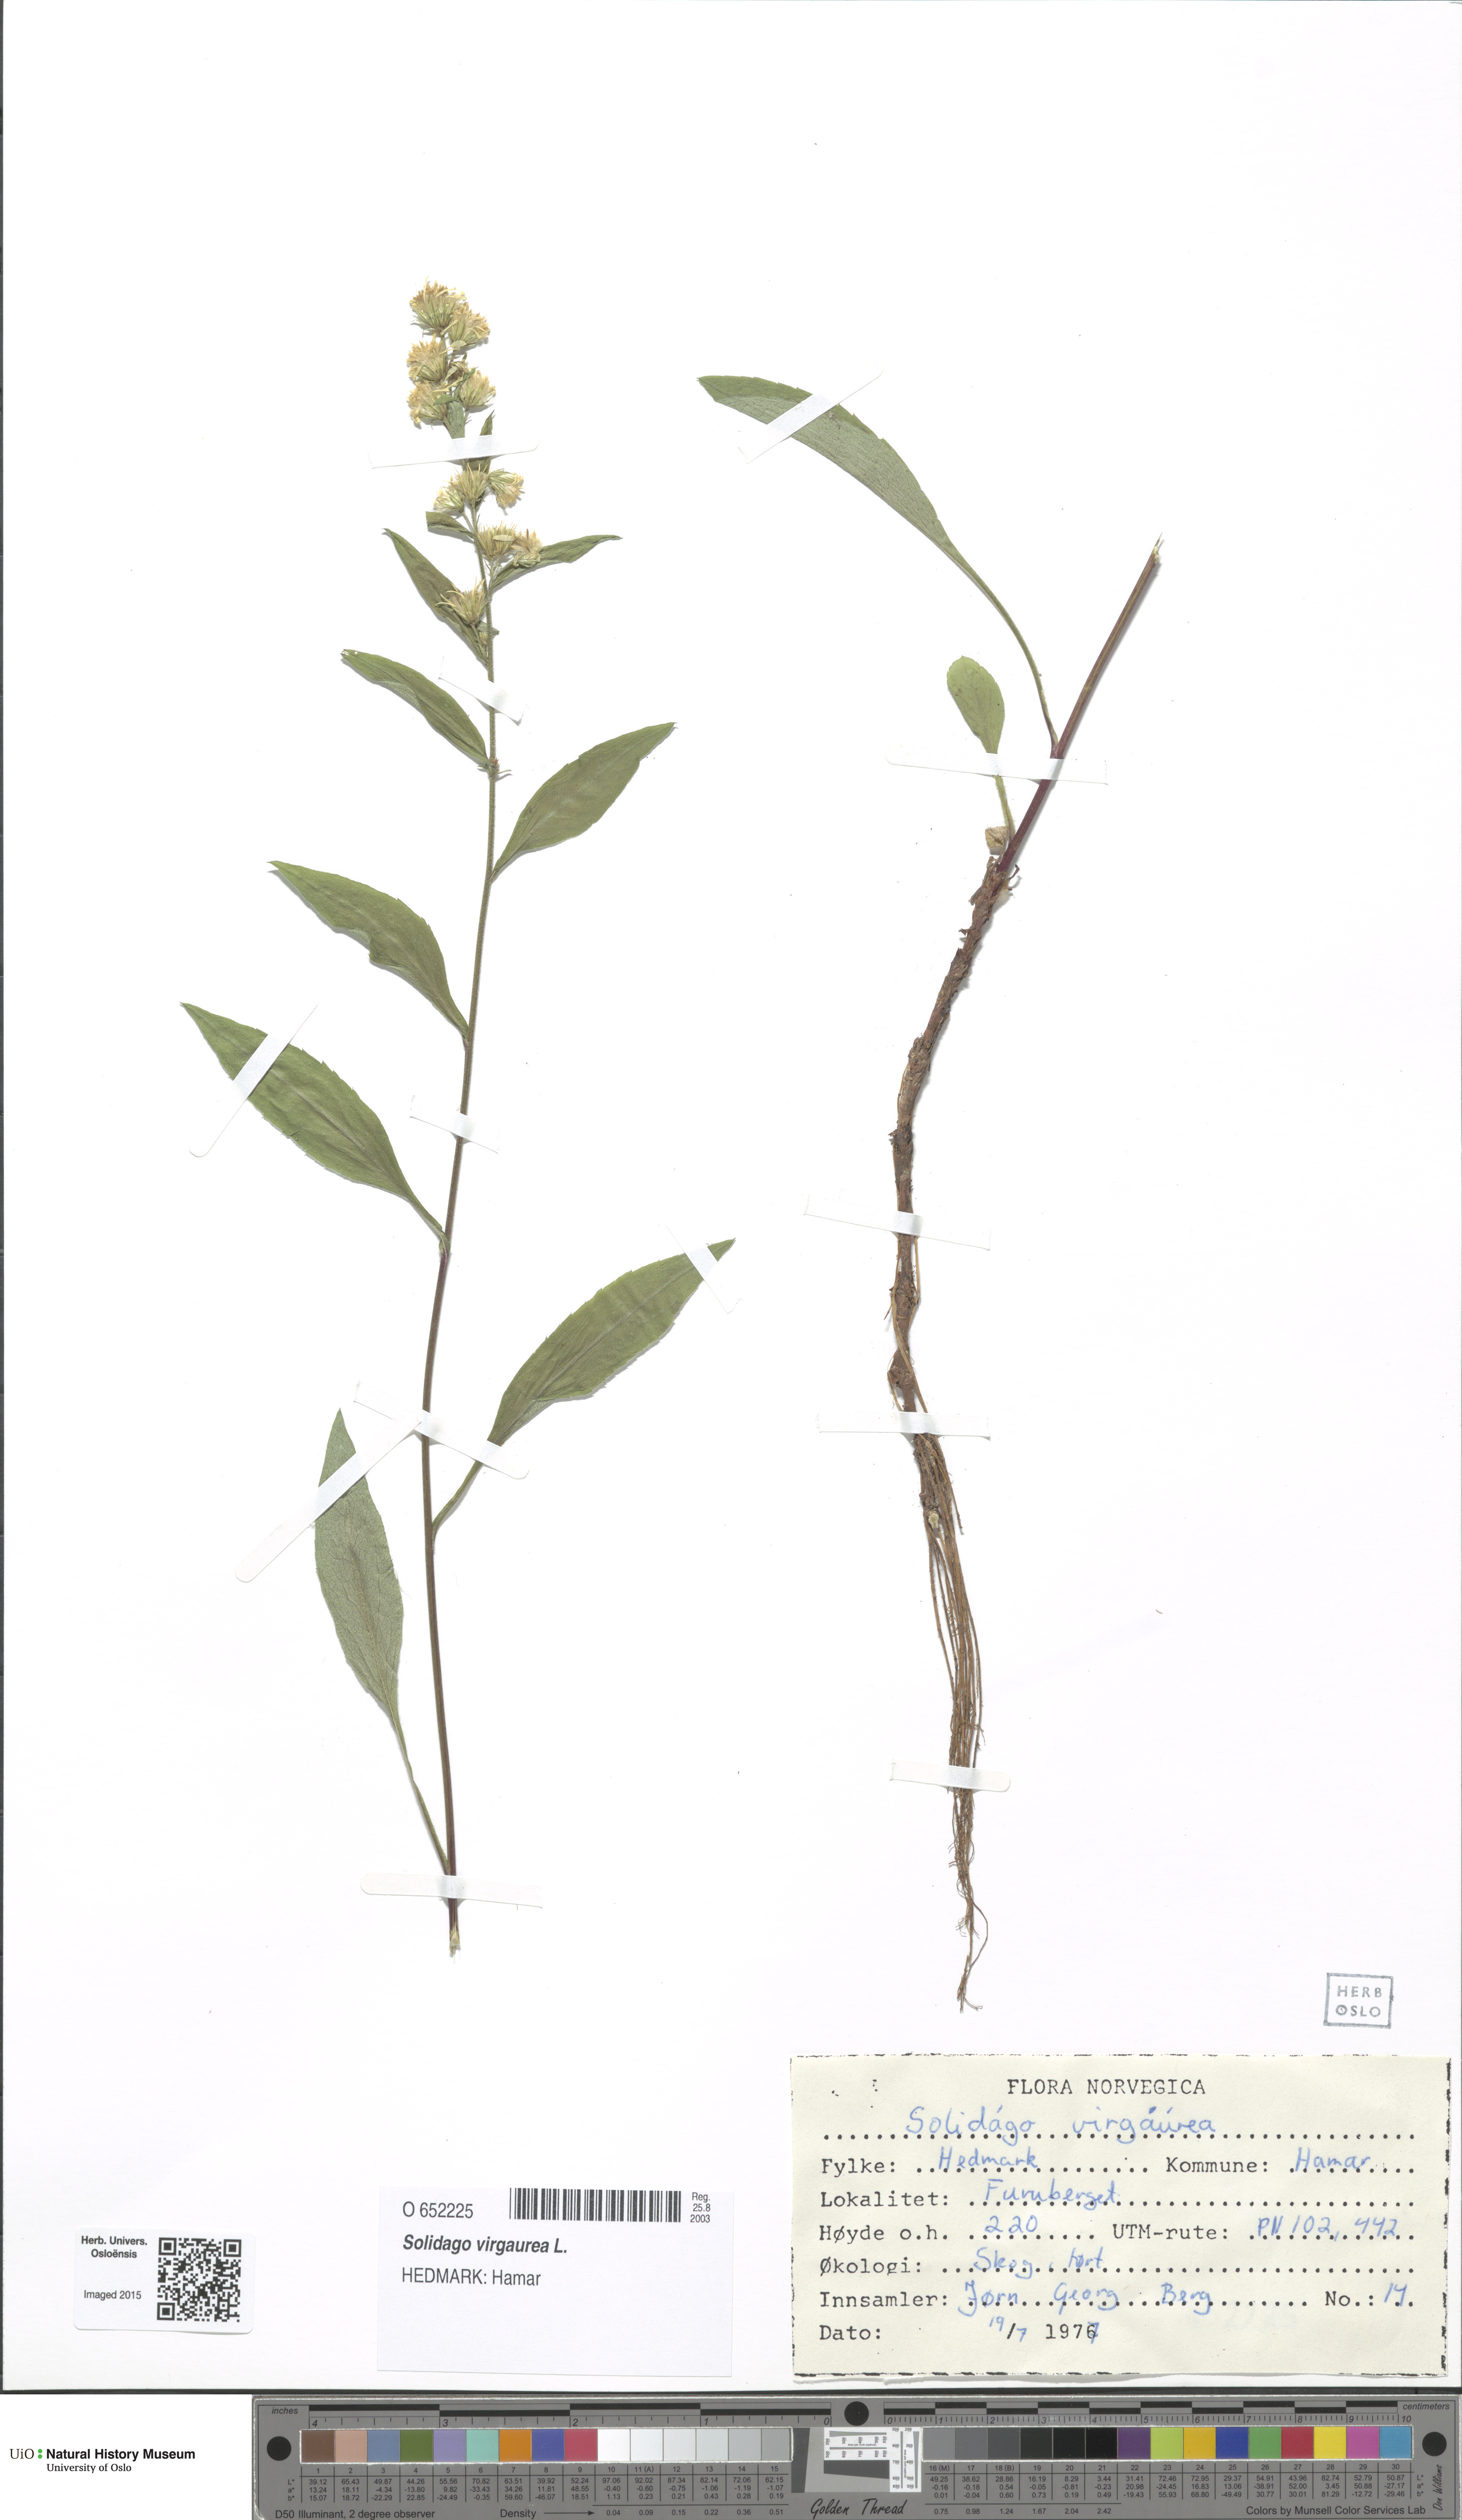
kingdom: Plantae
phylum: Tracheophyta
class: Magnoliopsida
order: Asterales
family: Asteraceae
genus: Solidago
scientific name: Solidago virgaurea
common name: Goldenrod
